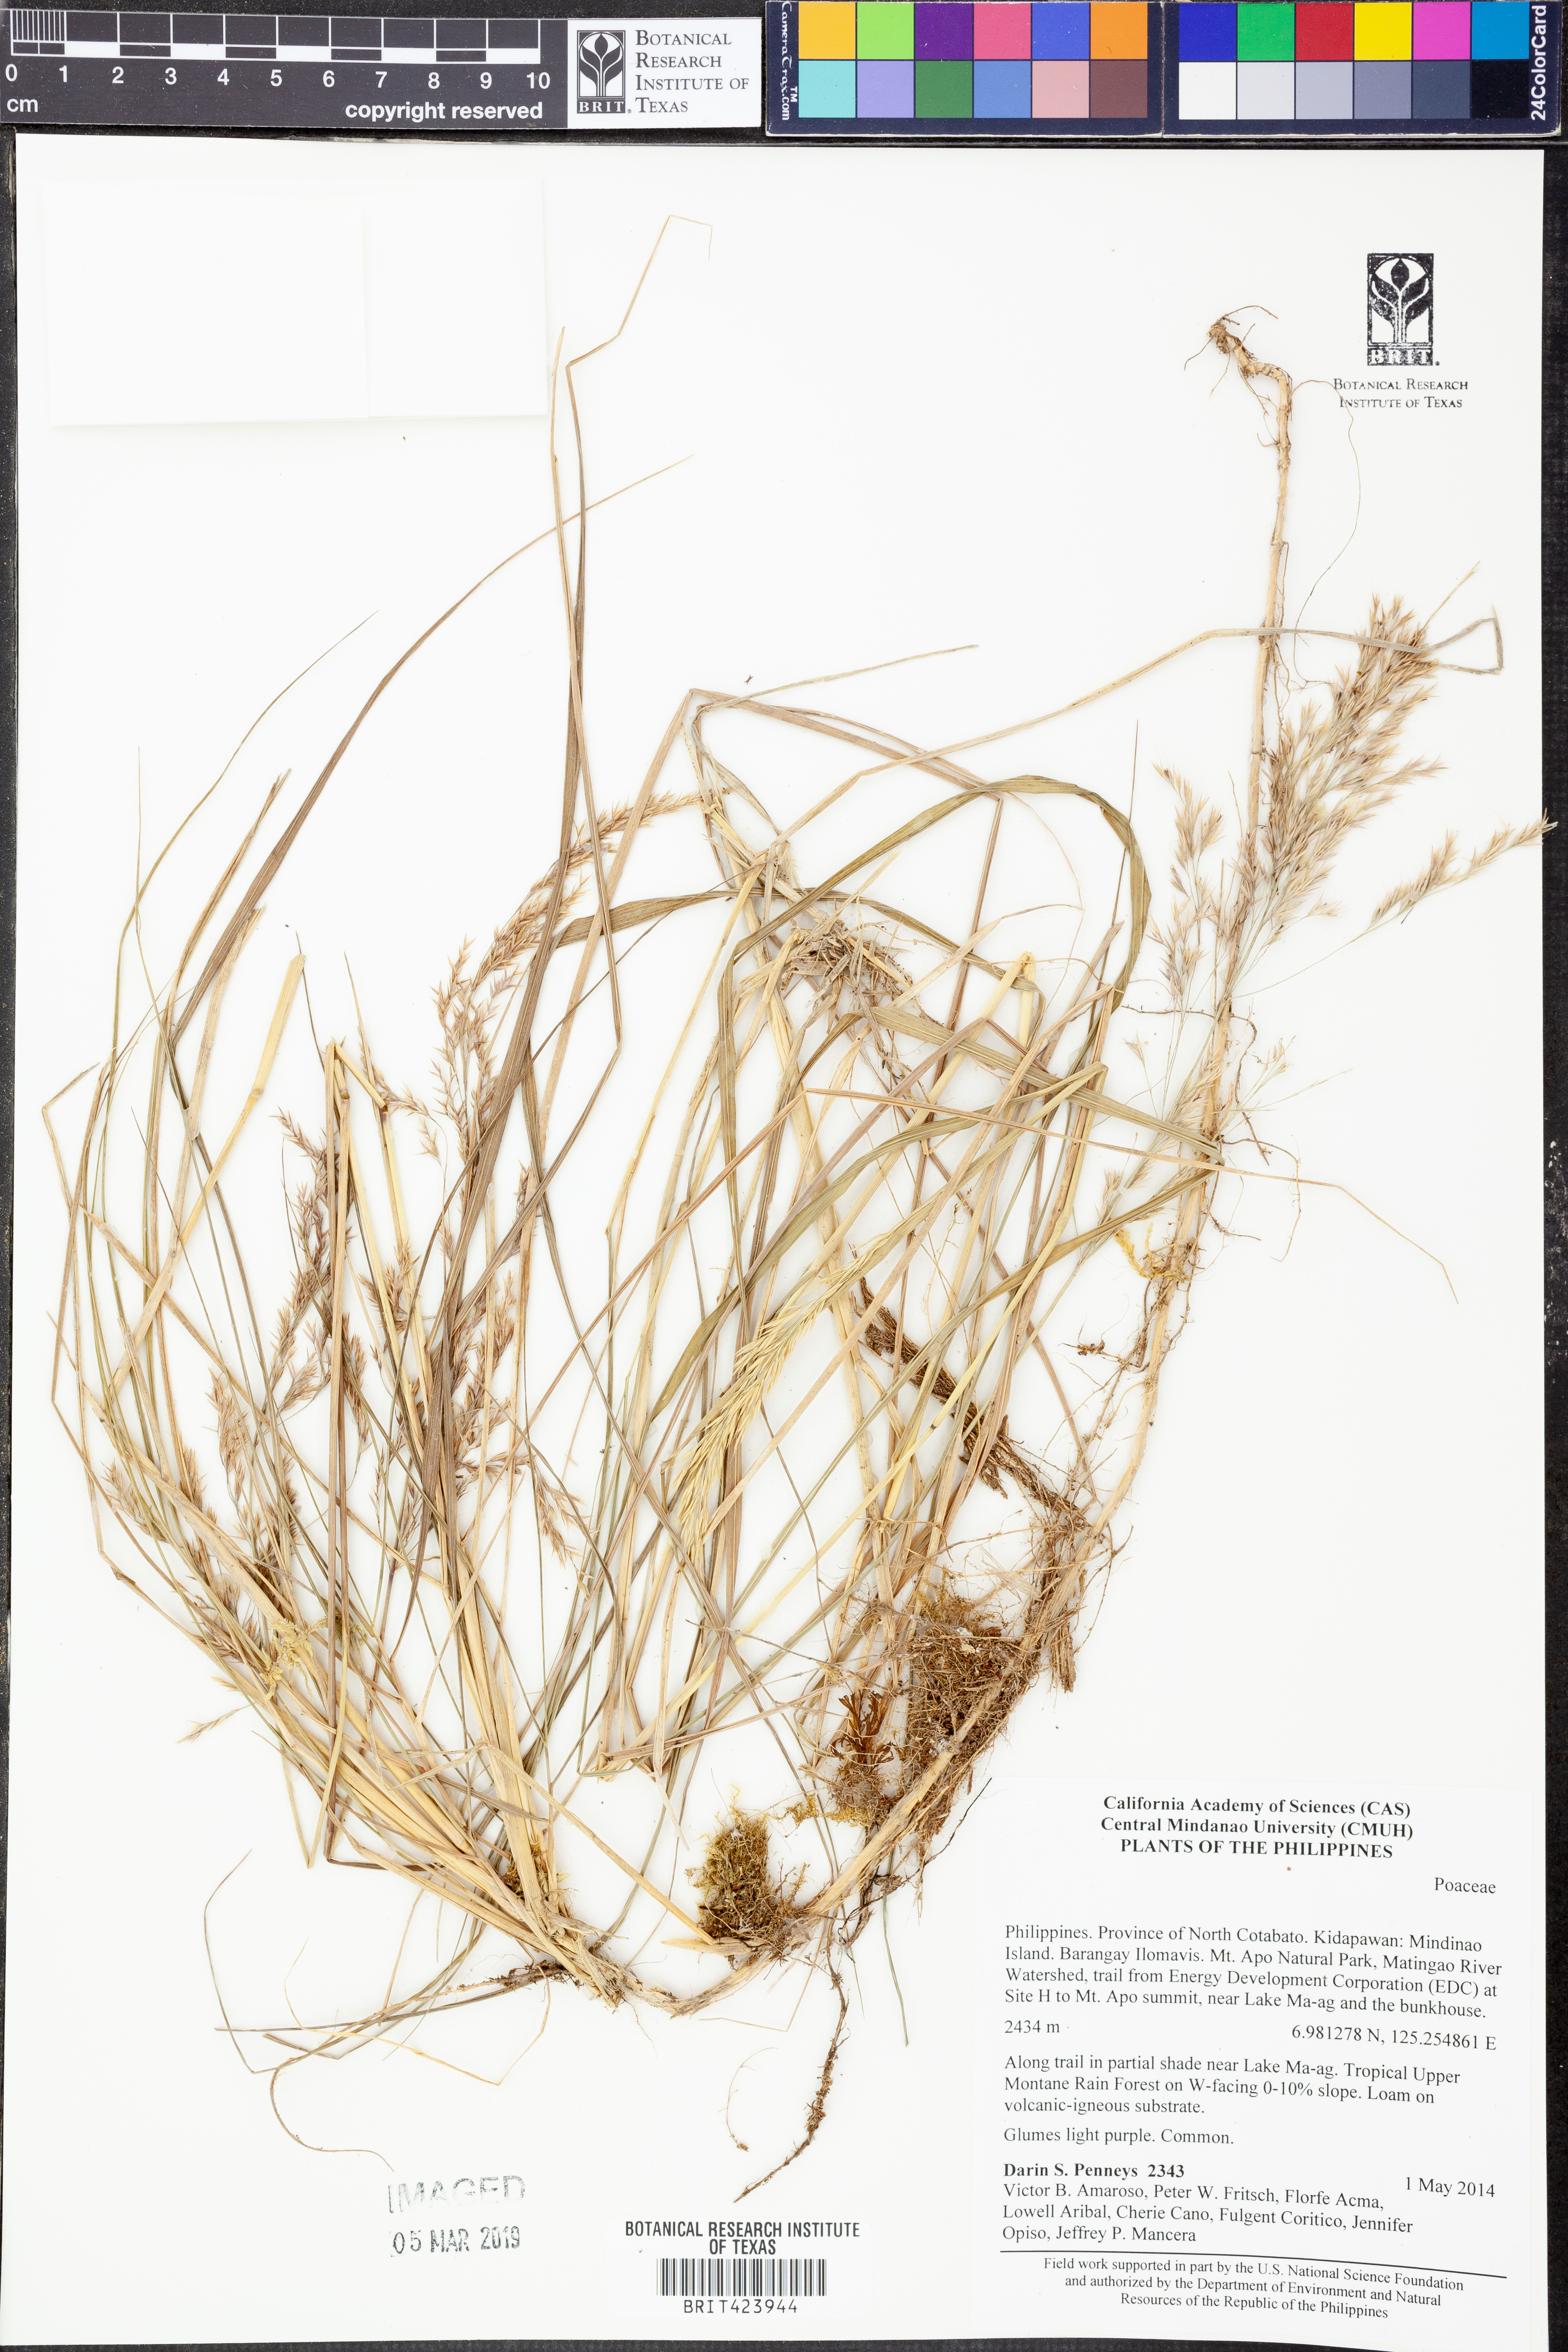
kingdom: Plantae
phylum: Tracheophyta
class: Liliopsida
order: Poales
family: Poaceae
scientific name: Poaceae
